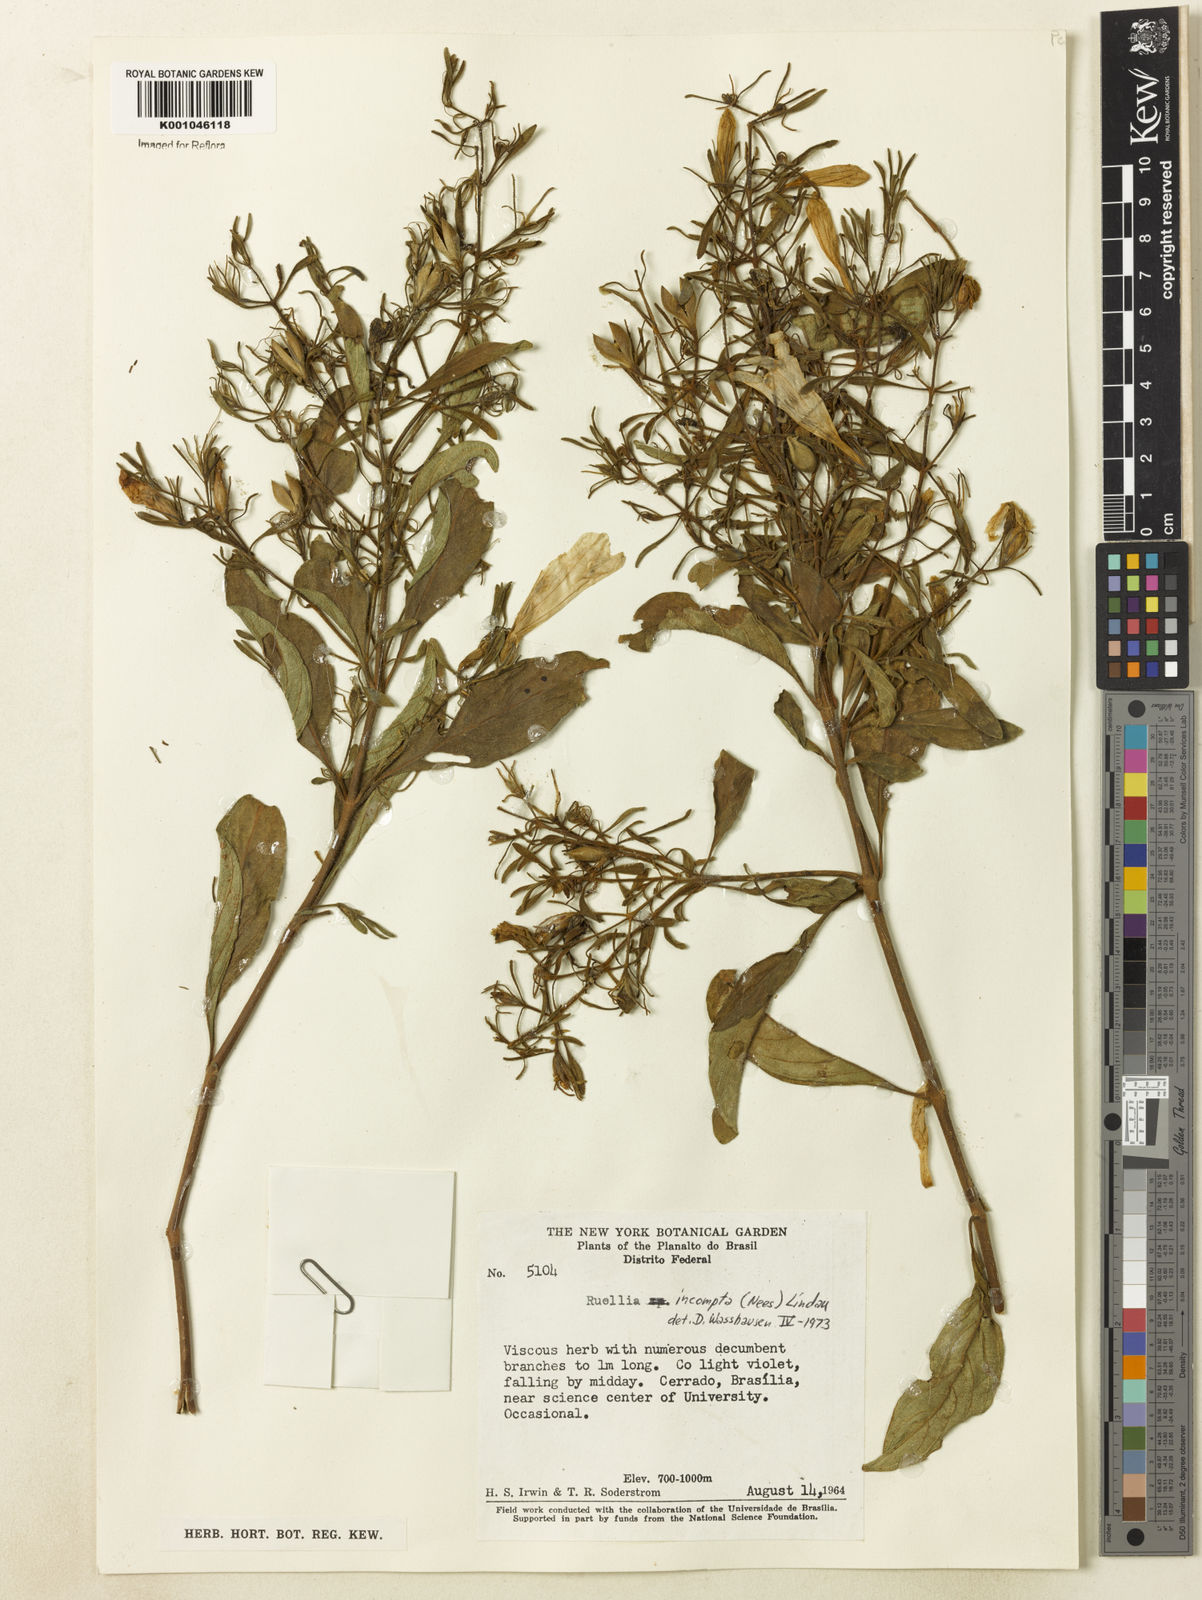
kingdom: Plantae
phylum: Tracheophyta
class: Magnoliopsida
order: Lamiales
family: Acanthaceae
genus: Ruellia
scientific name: Ruellia
